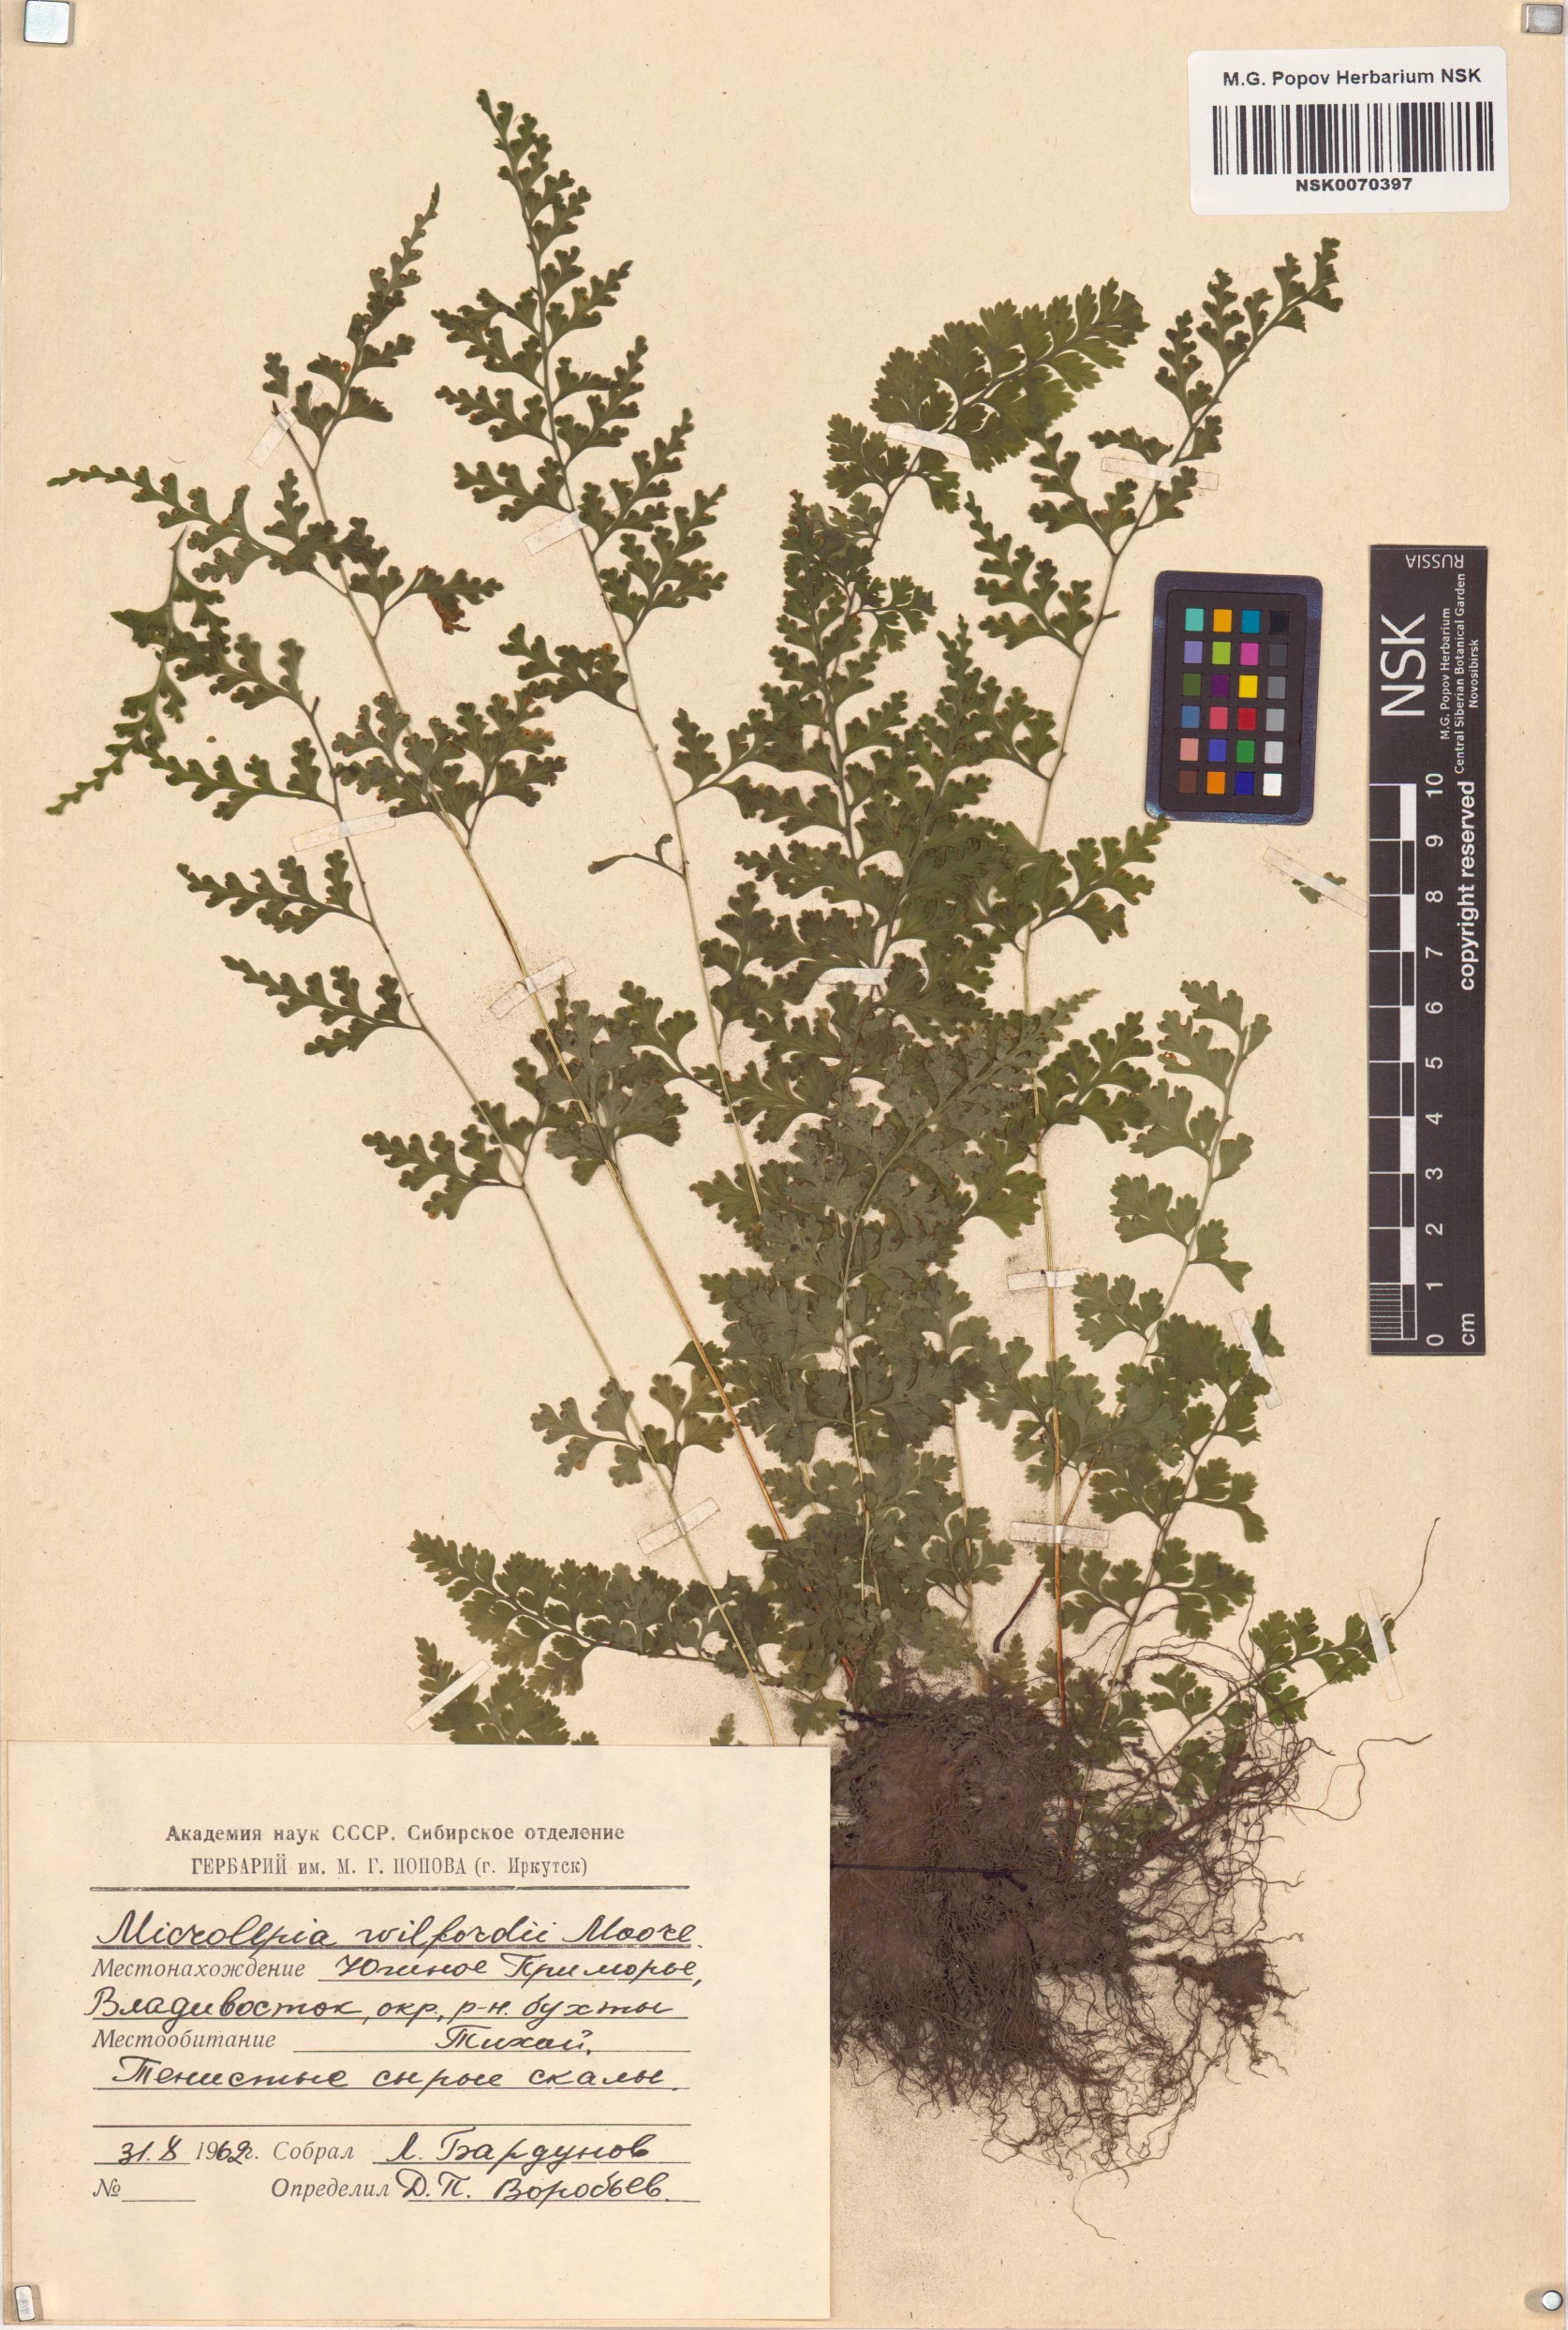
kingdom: Plantae
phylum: Tracheophyta
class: Polypodiopsida
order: Polypodiales
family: Dennstaedtiaceae
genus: Sitobolium
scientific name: Sitobolium wilfordii
